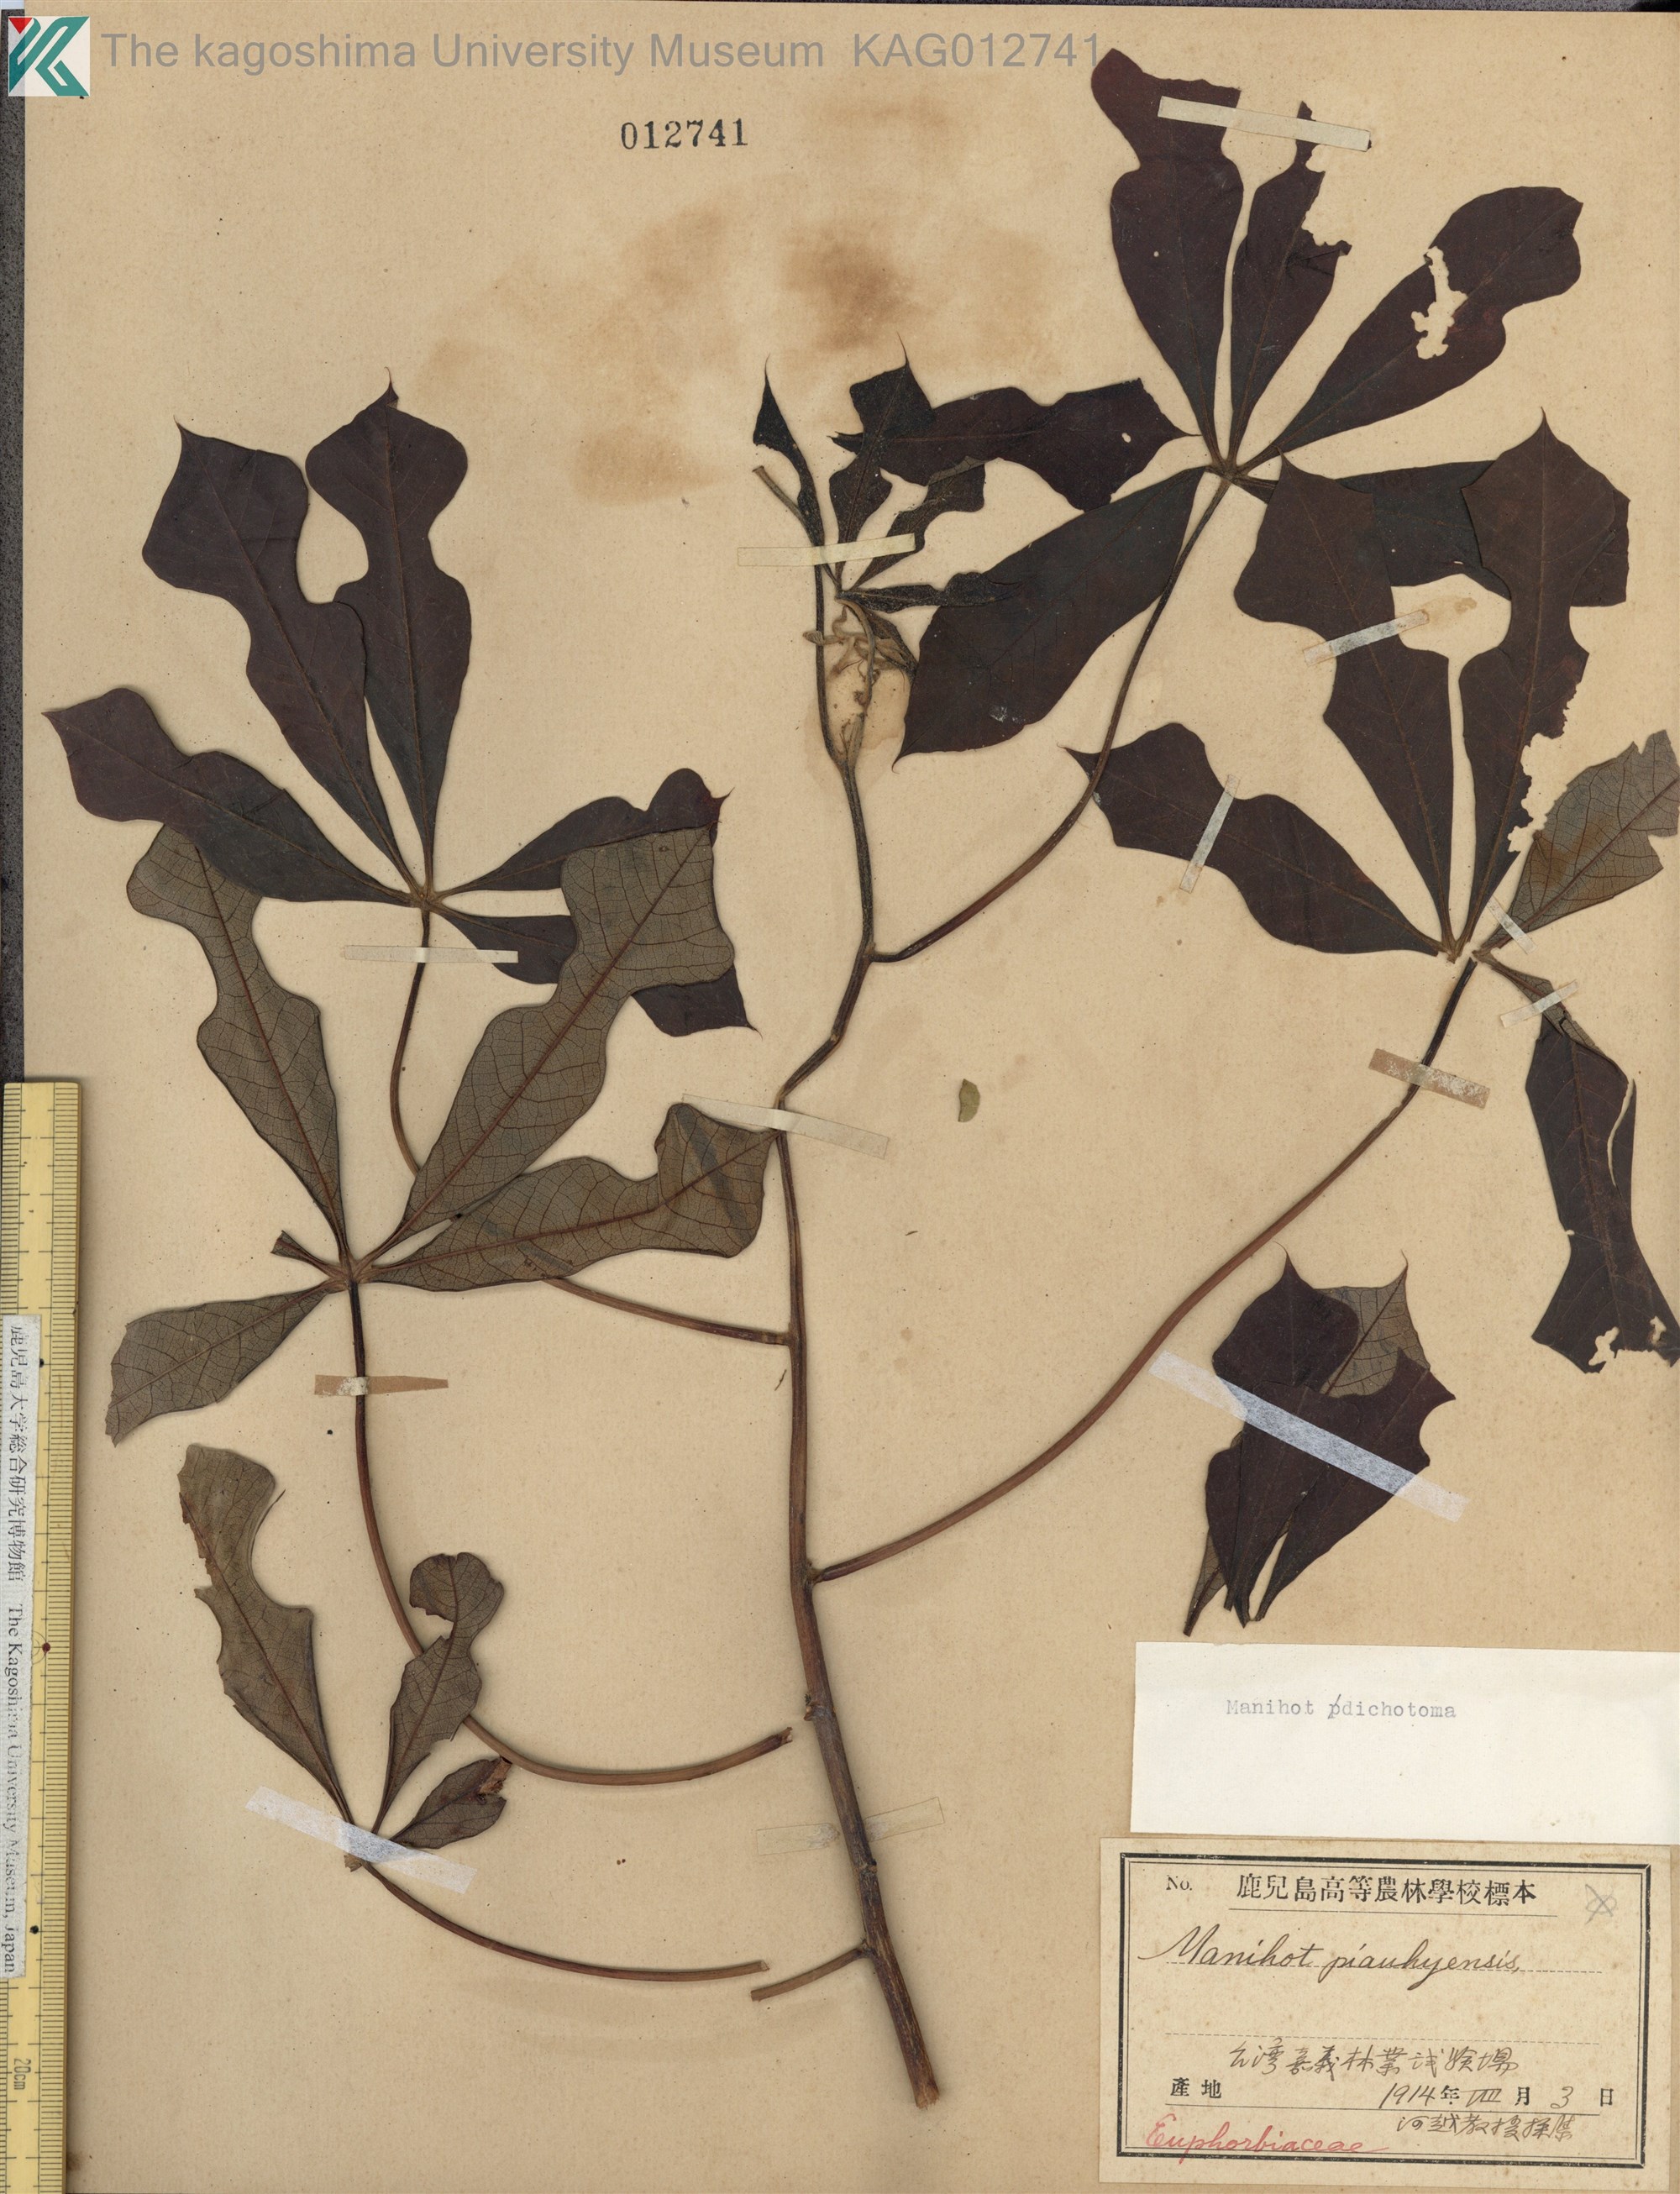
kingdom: Plantae
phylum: Tracheophyta
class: Magnoliopsida
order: Malpighiales
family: Euphorbiaceae
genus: Manihot
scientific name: Manihot dichotoma
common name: Jequie rubber tree
